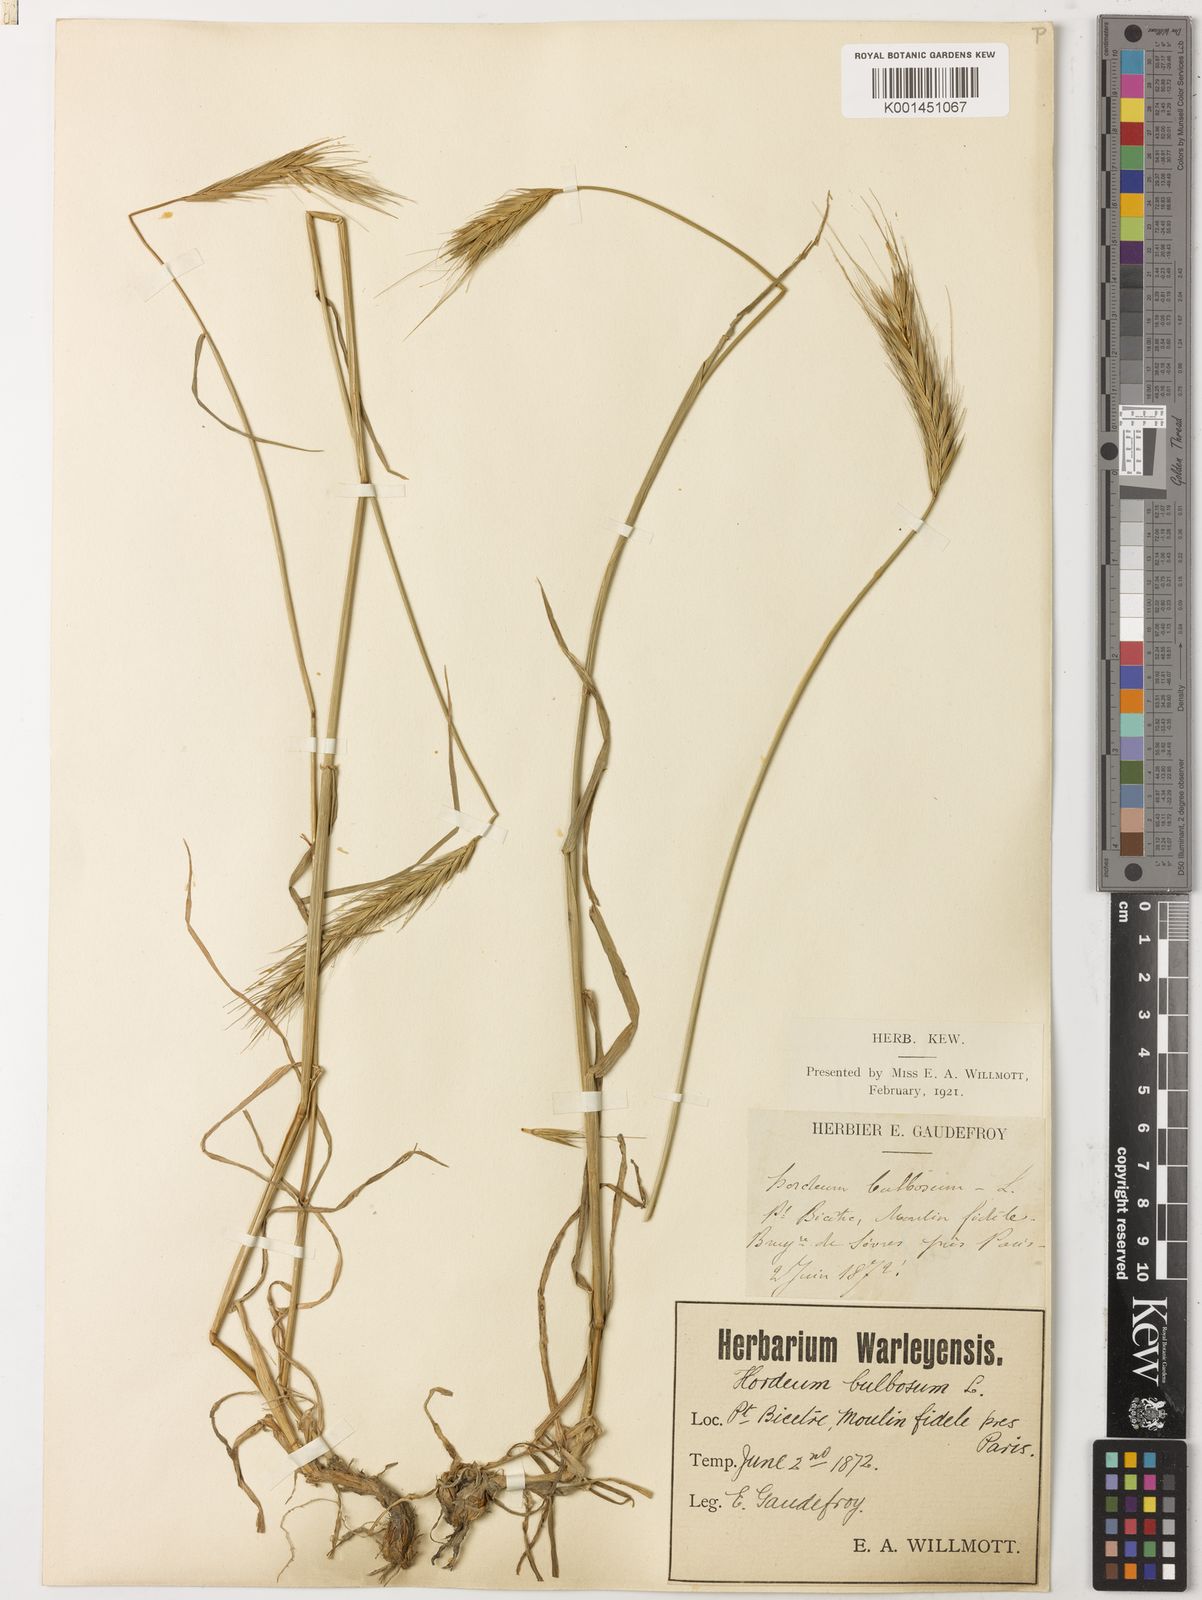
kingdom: Plantae
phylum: Tracheophyta
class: Liliopsida
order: Poales
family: Poaceae
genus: Hordeum
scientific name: Hordeum bulbosum
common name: Bulbous barley
